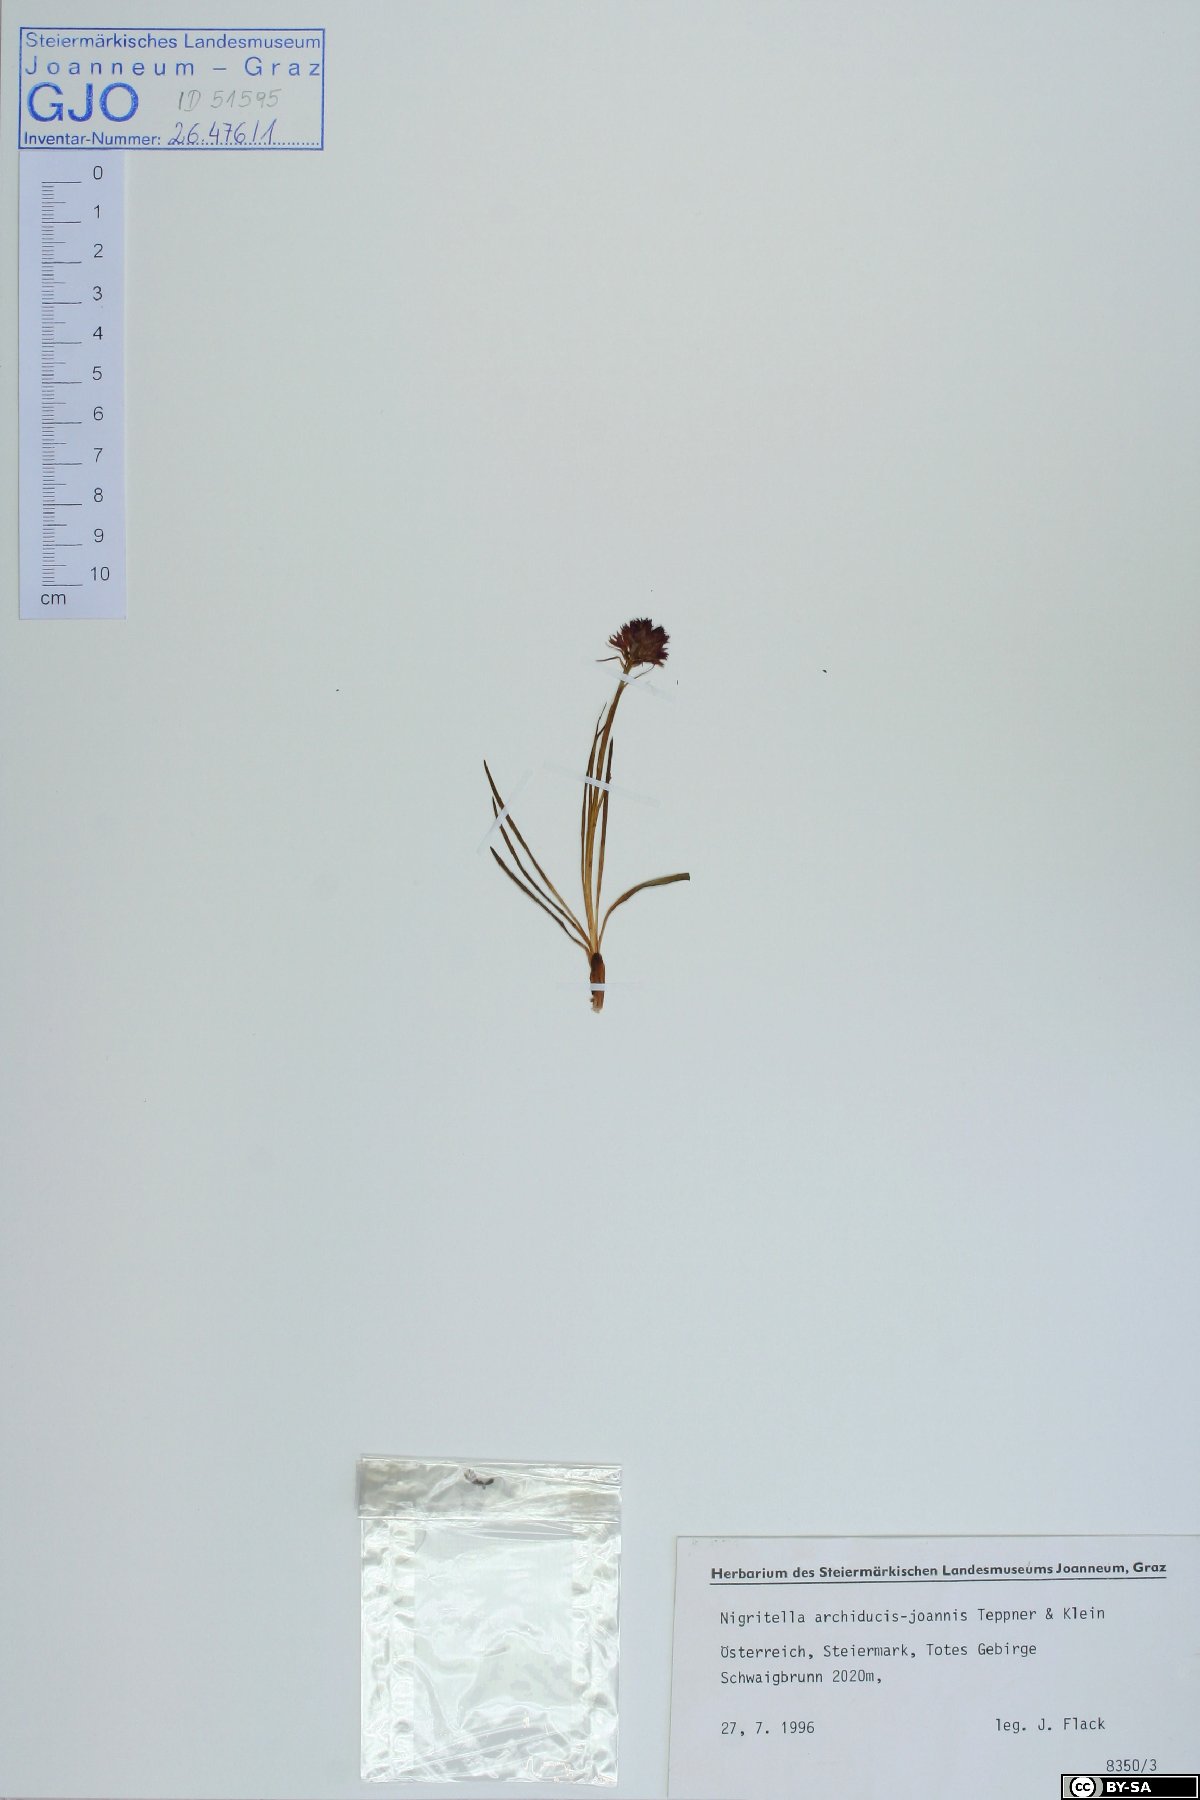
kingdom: Plantae
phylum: Tracheophyta
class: Liliopsida
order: Asparagales
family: Orchidaceae
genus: Gymnadenia
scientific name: Gymnadenia archiducis-joannis
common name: Austrian gymnadenia
